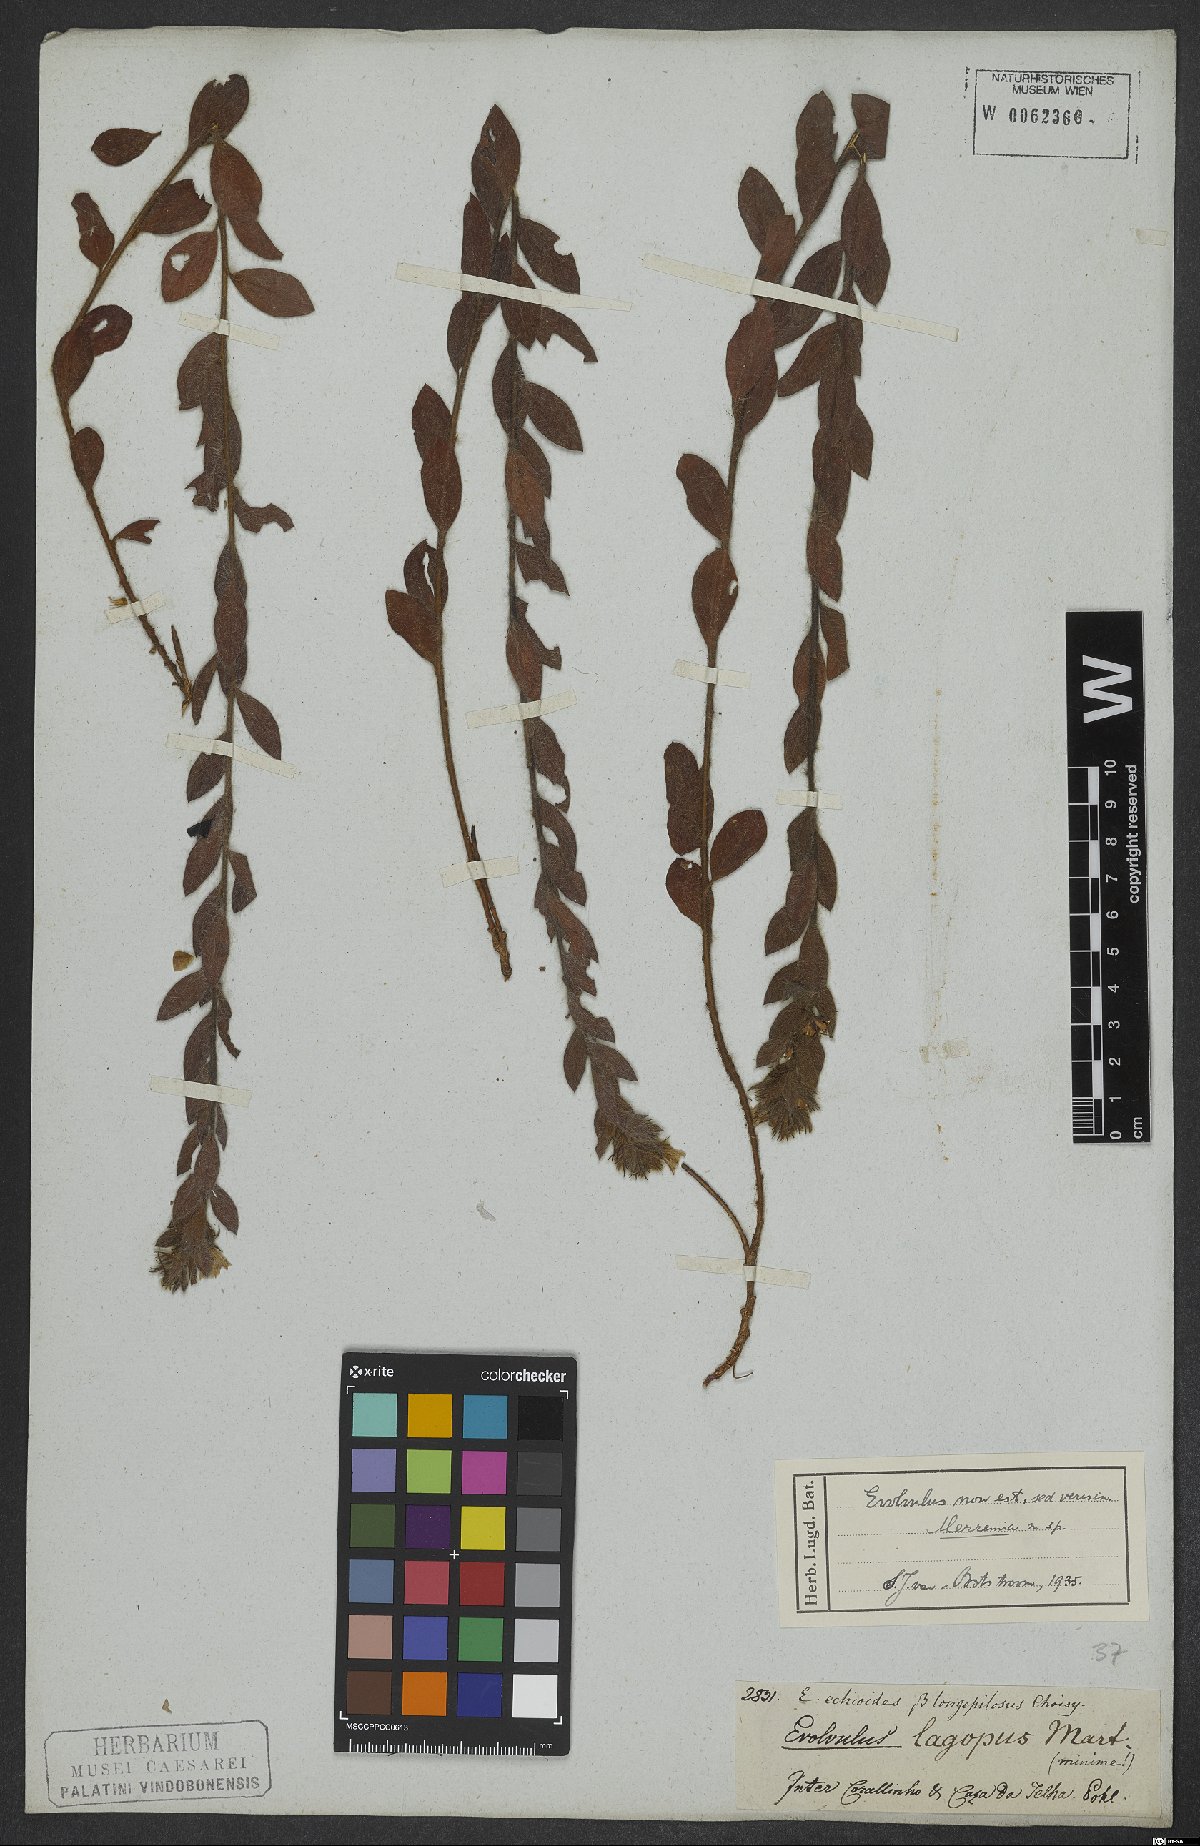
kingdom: Plantae
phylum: Tracheophyta
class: Magnoliopsida
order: Solanales
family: Convolvulaceae
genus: Merremia
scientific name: Merremia
